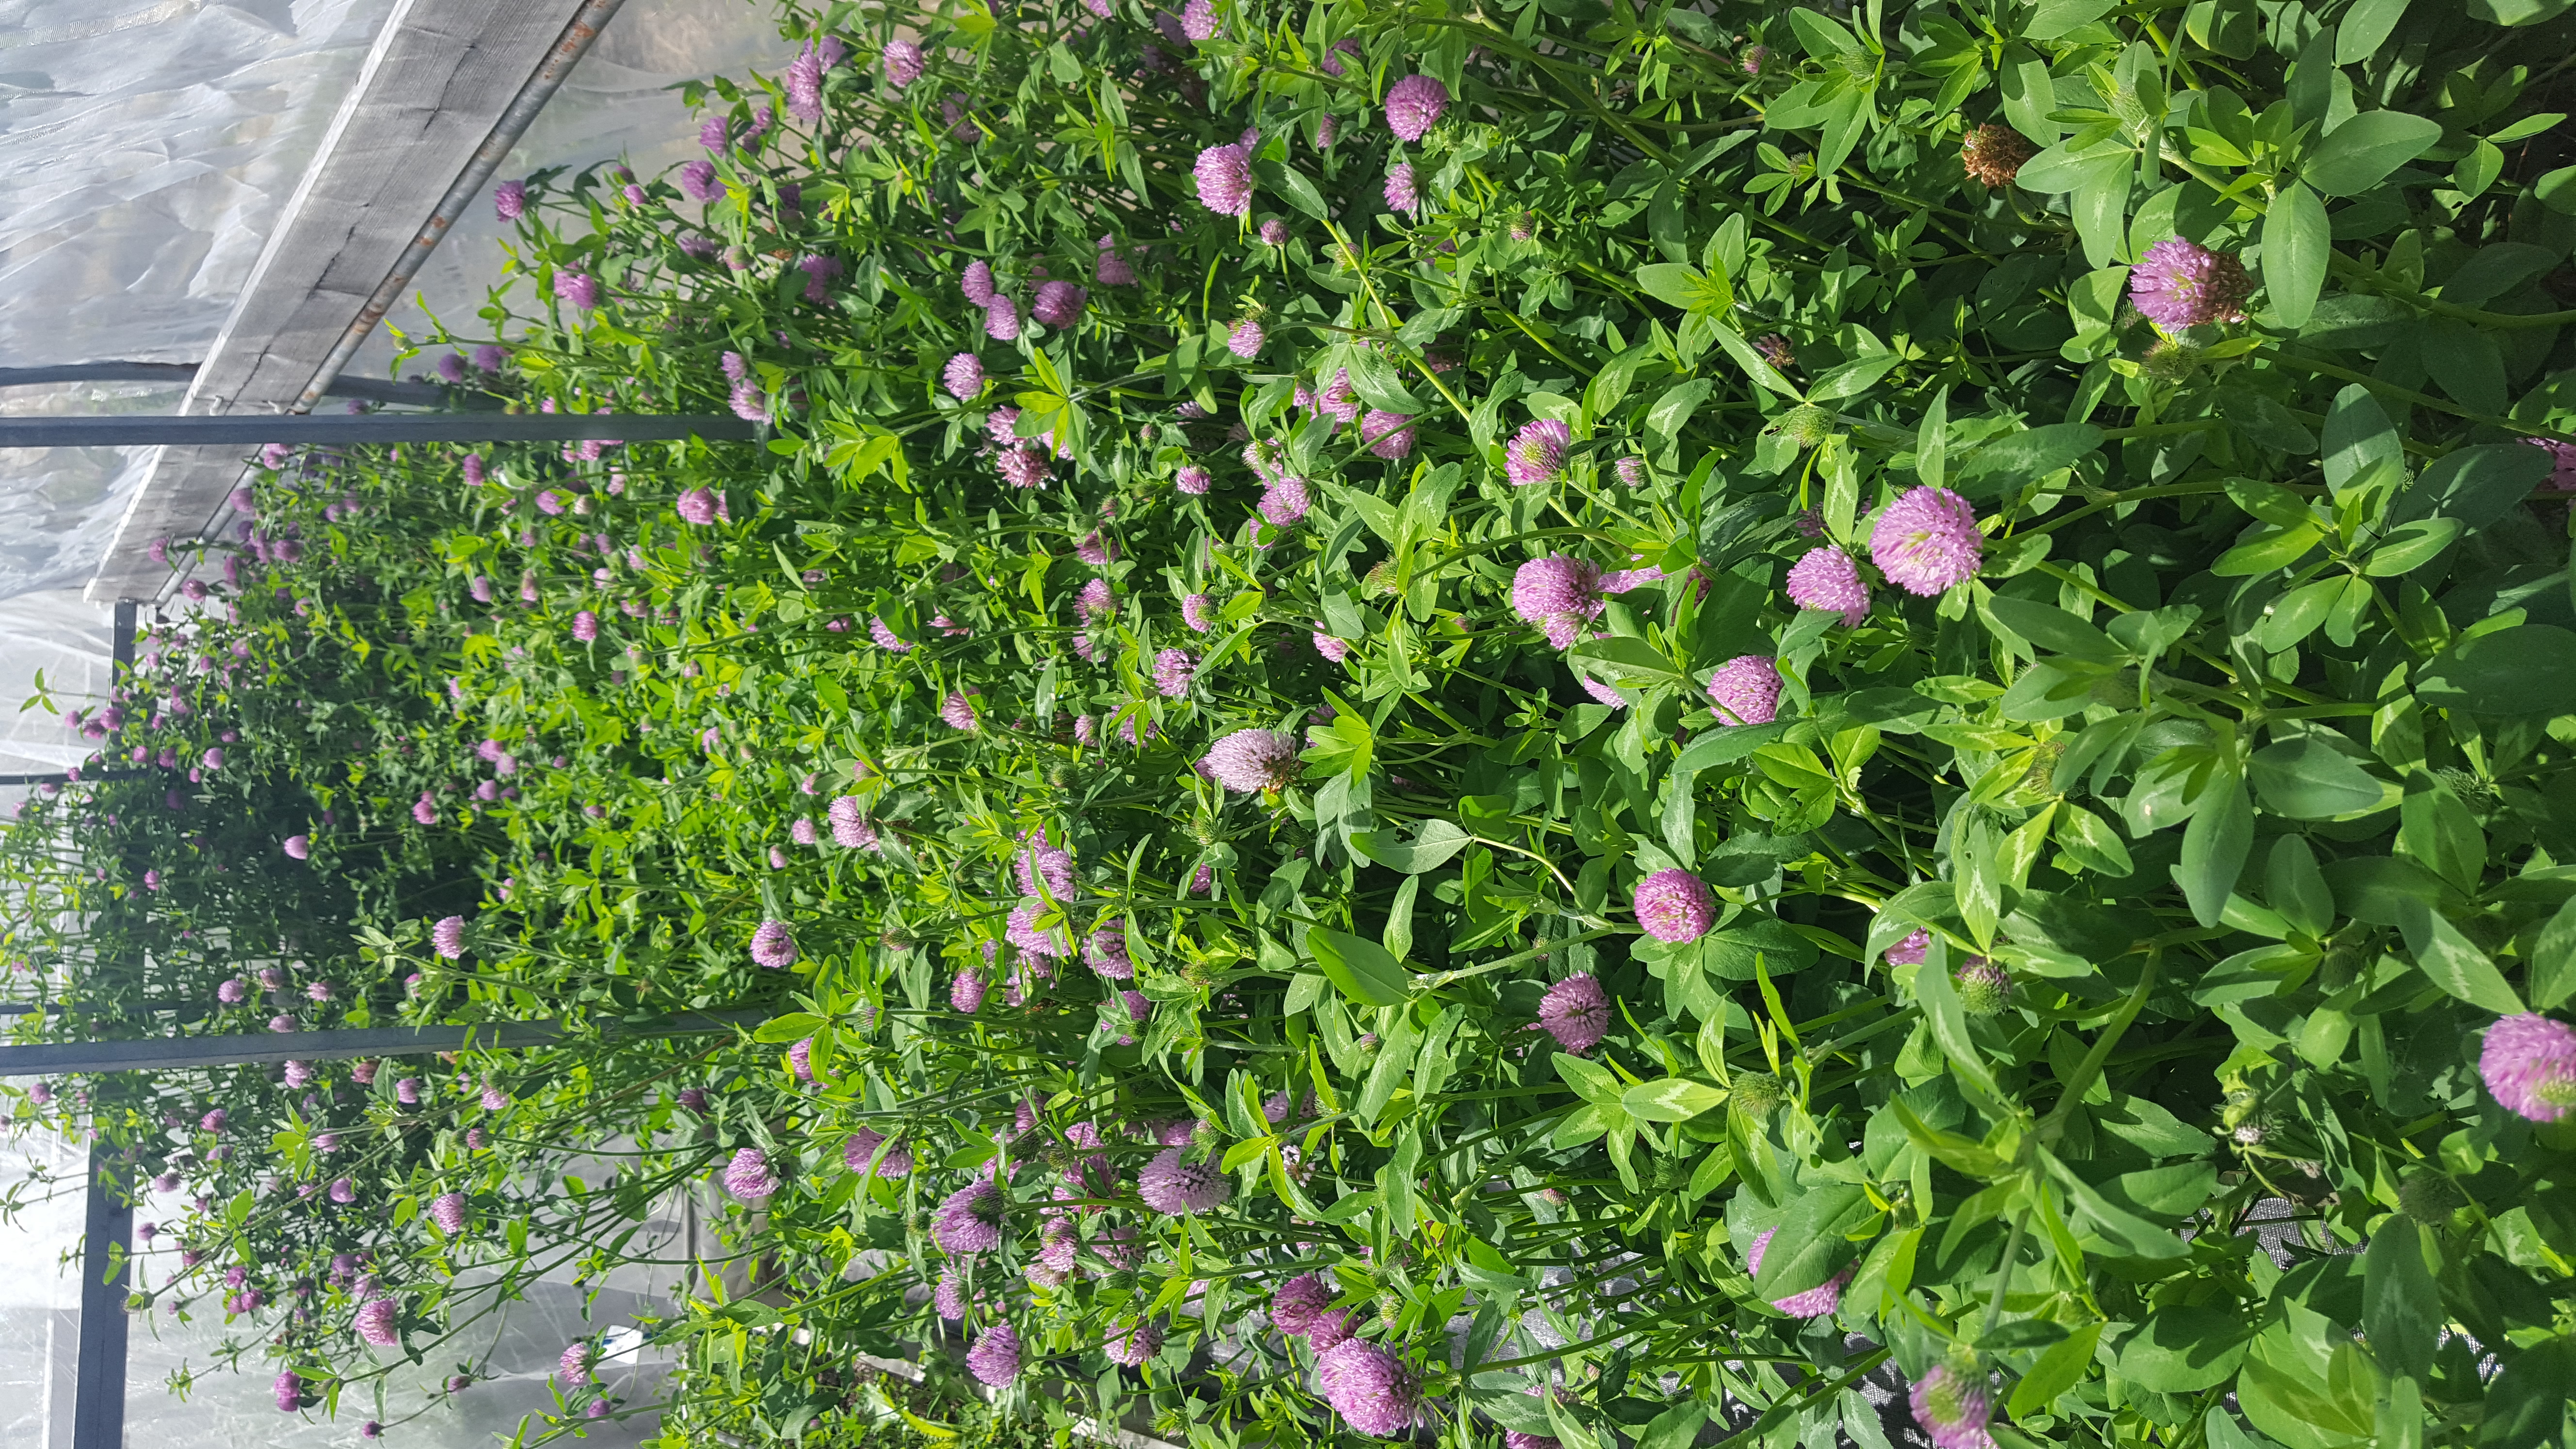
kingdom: Plantae
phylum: Tracheophyta
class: Magnoliopsida
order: Fabales
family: Fabaceae
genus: Trifolium
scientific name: Trifolium pratense
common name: Red clover
